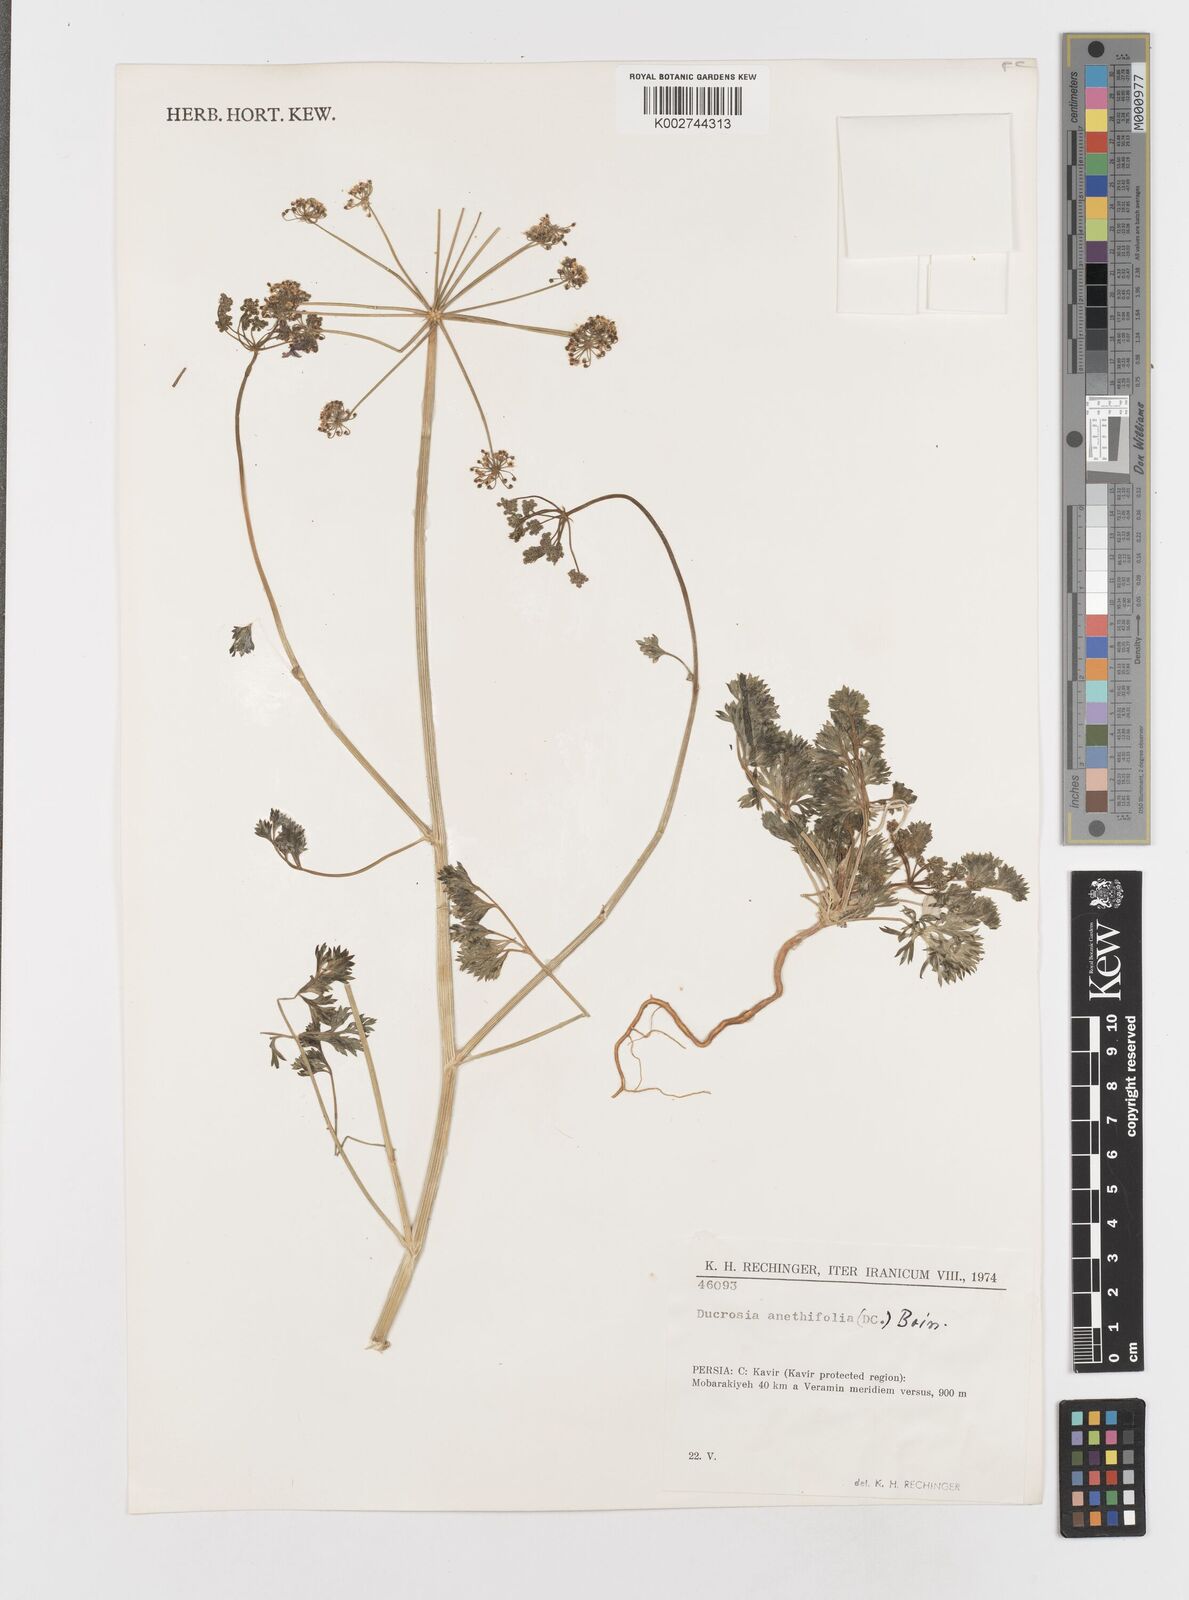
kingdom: Plantae
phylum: Tracheophyta
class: Magnoliopsida
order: Apiales
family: Apiaceae
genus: Ducrosia
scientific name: Ducrosia anethifolia
